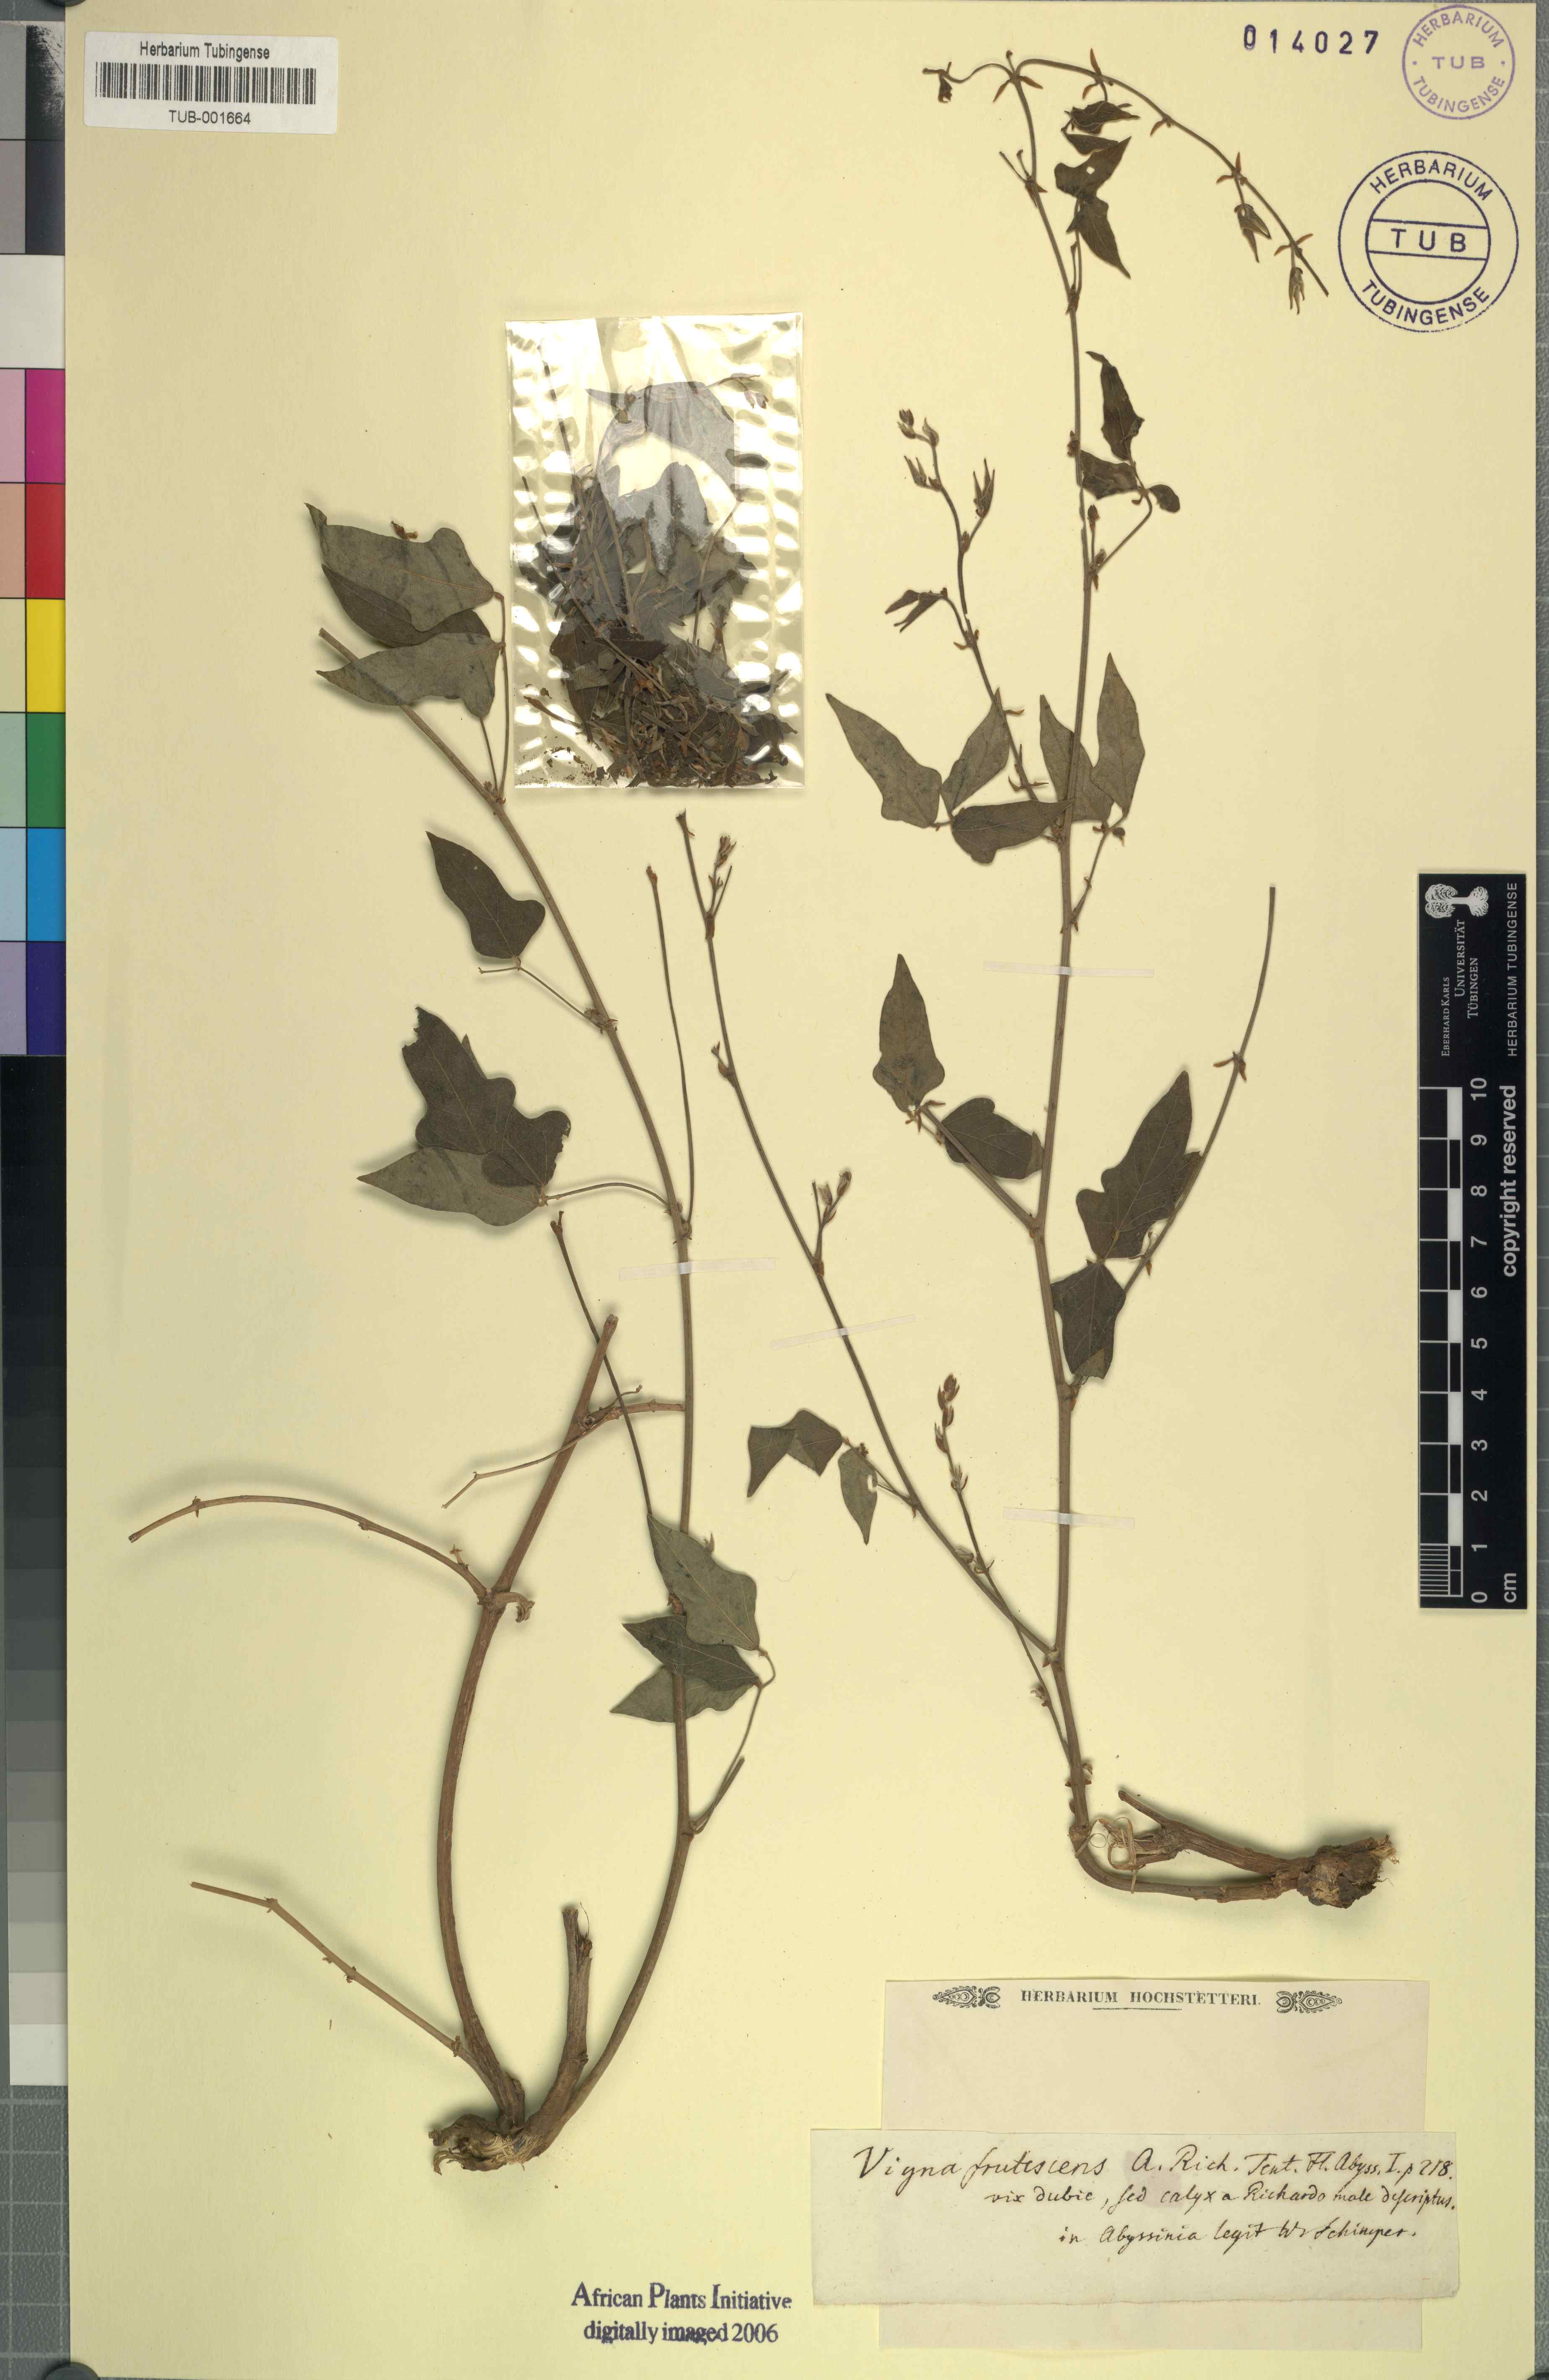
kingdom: Plantae
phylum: Tracheophyta
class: Magnoliopsida
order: Fabales
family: Fabaceae
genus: Vigna
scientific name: Vigna frutescens
